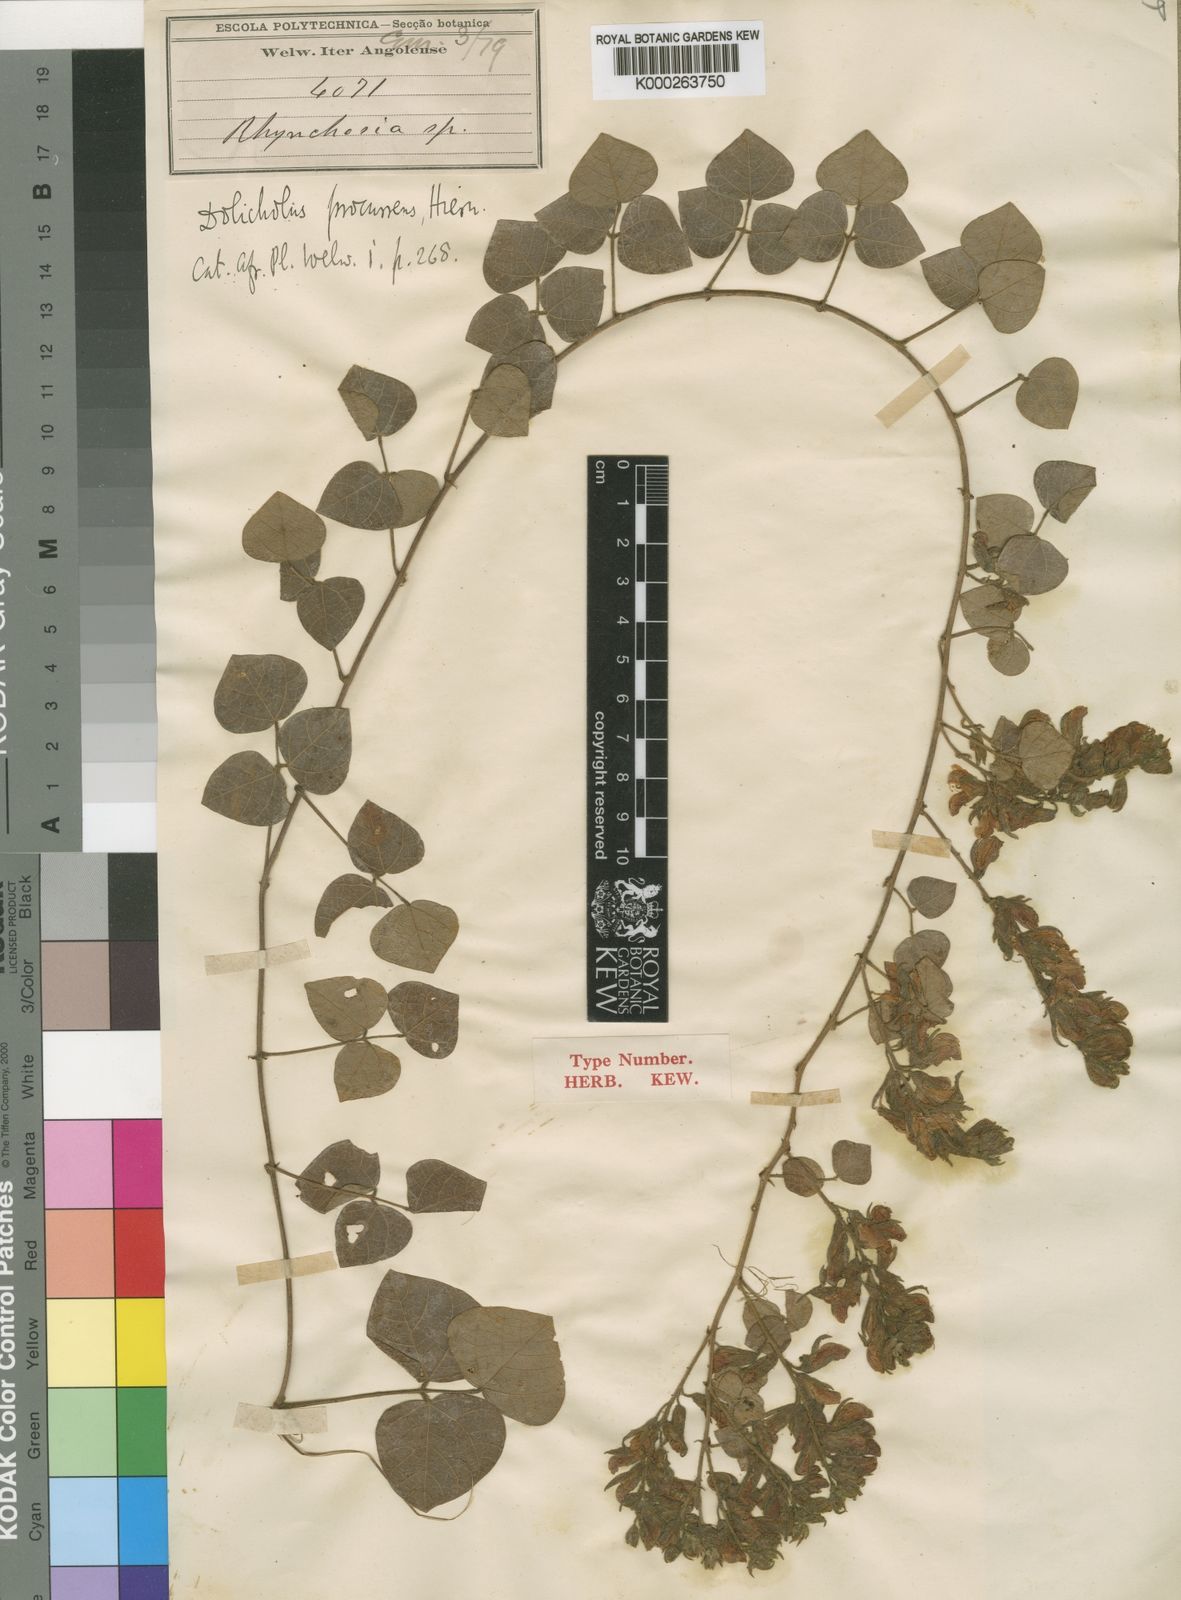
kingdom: Plantae
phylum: Tracheophyta
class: Magnoliopsida
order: Fabales
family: Fabaceae
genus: Rhynchosia
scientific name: Rhynchosia procurrens
